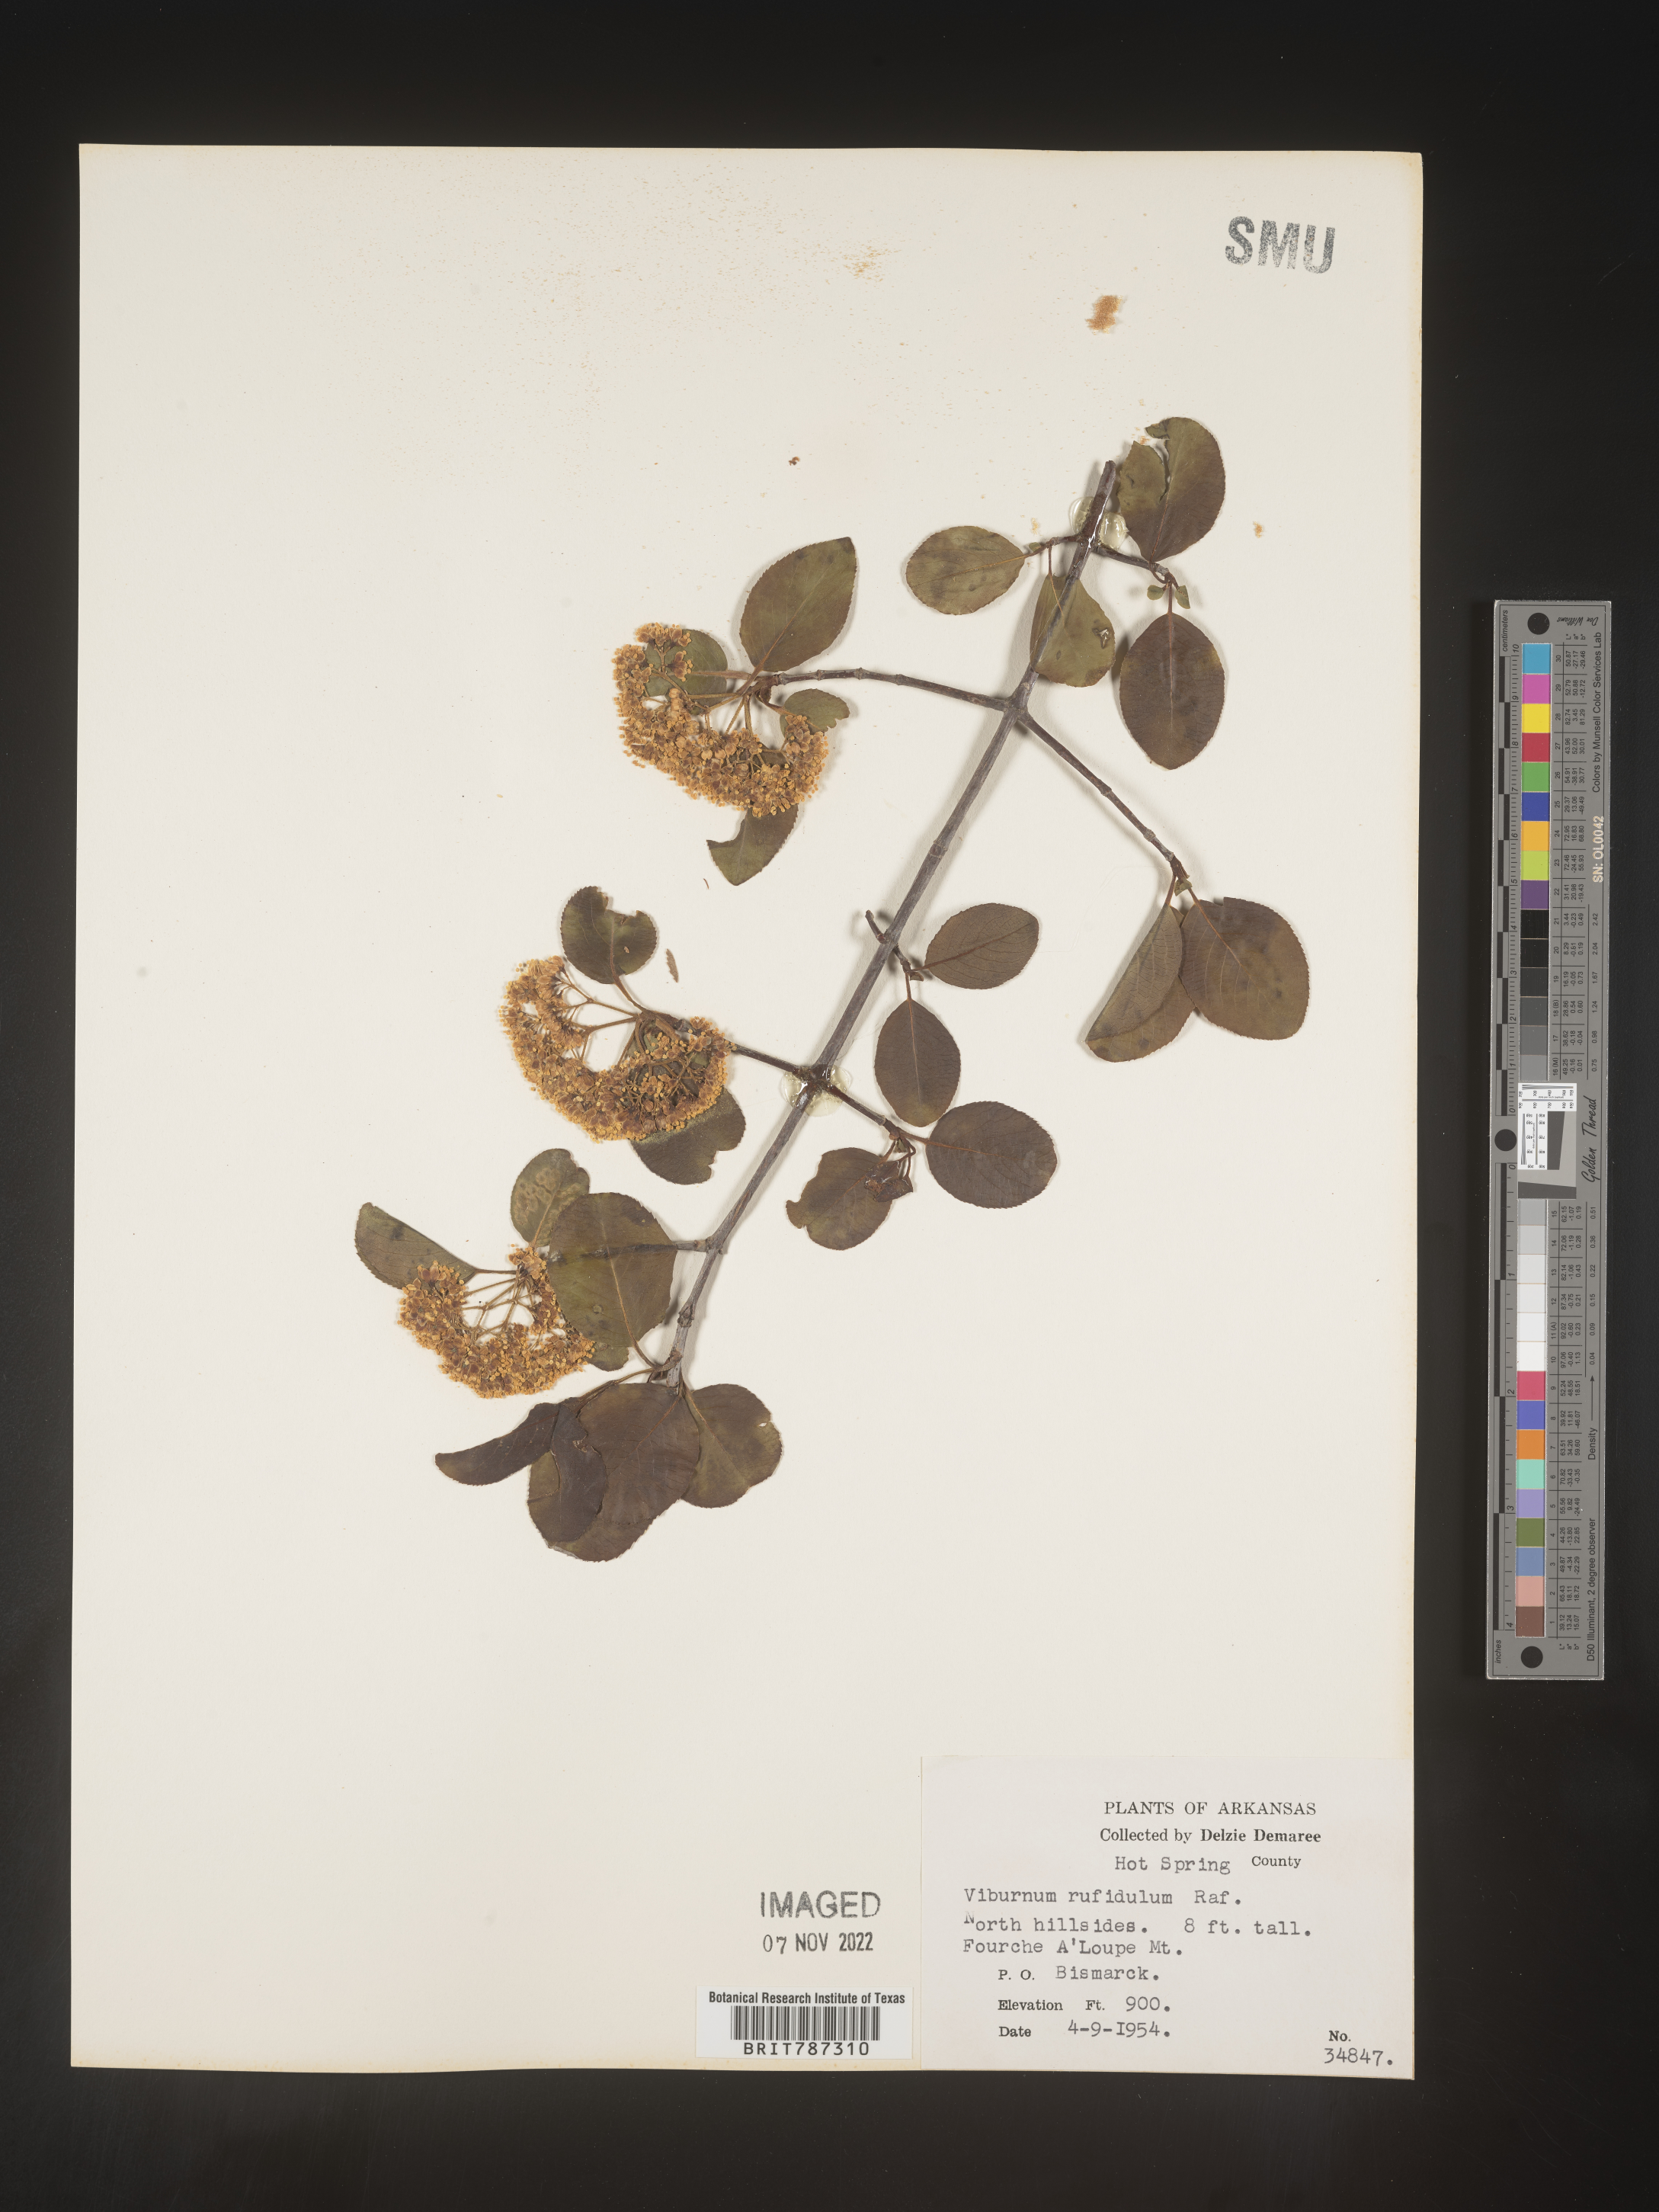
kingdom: Plantae
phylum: Tracheophyta
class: Magnoliopsida
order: Dipsacales
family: Viburnaceae
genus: Viburnum
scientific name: Viburnum rufidulum
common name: Blue haw
